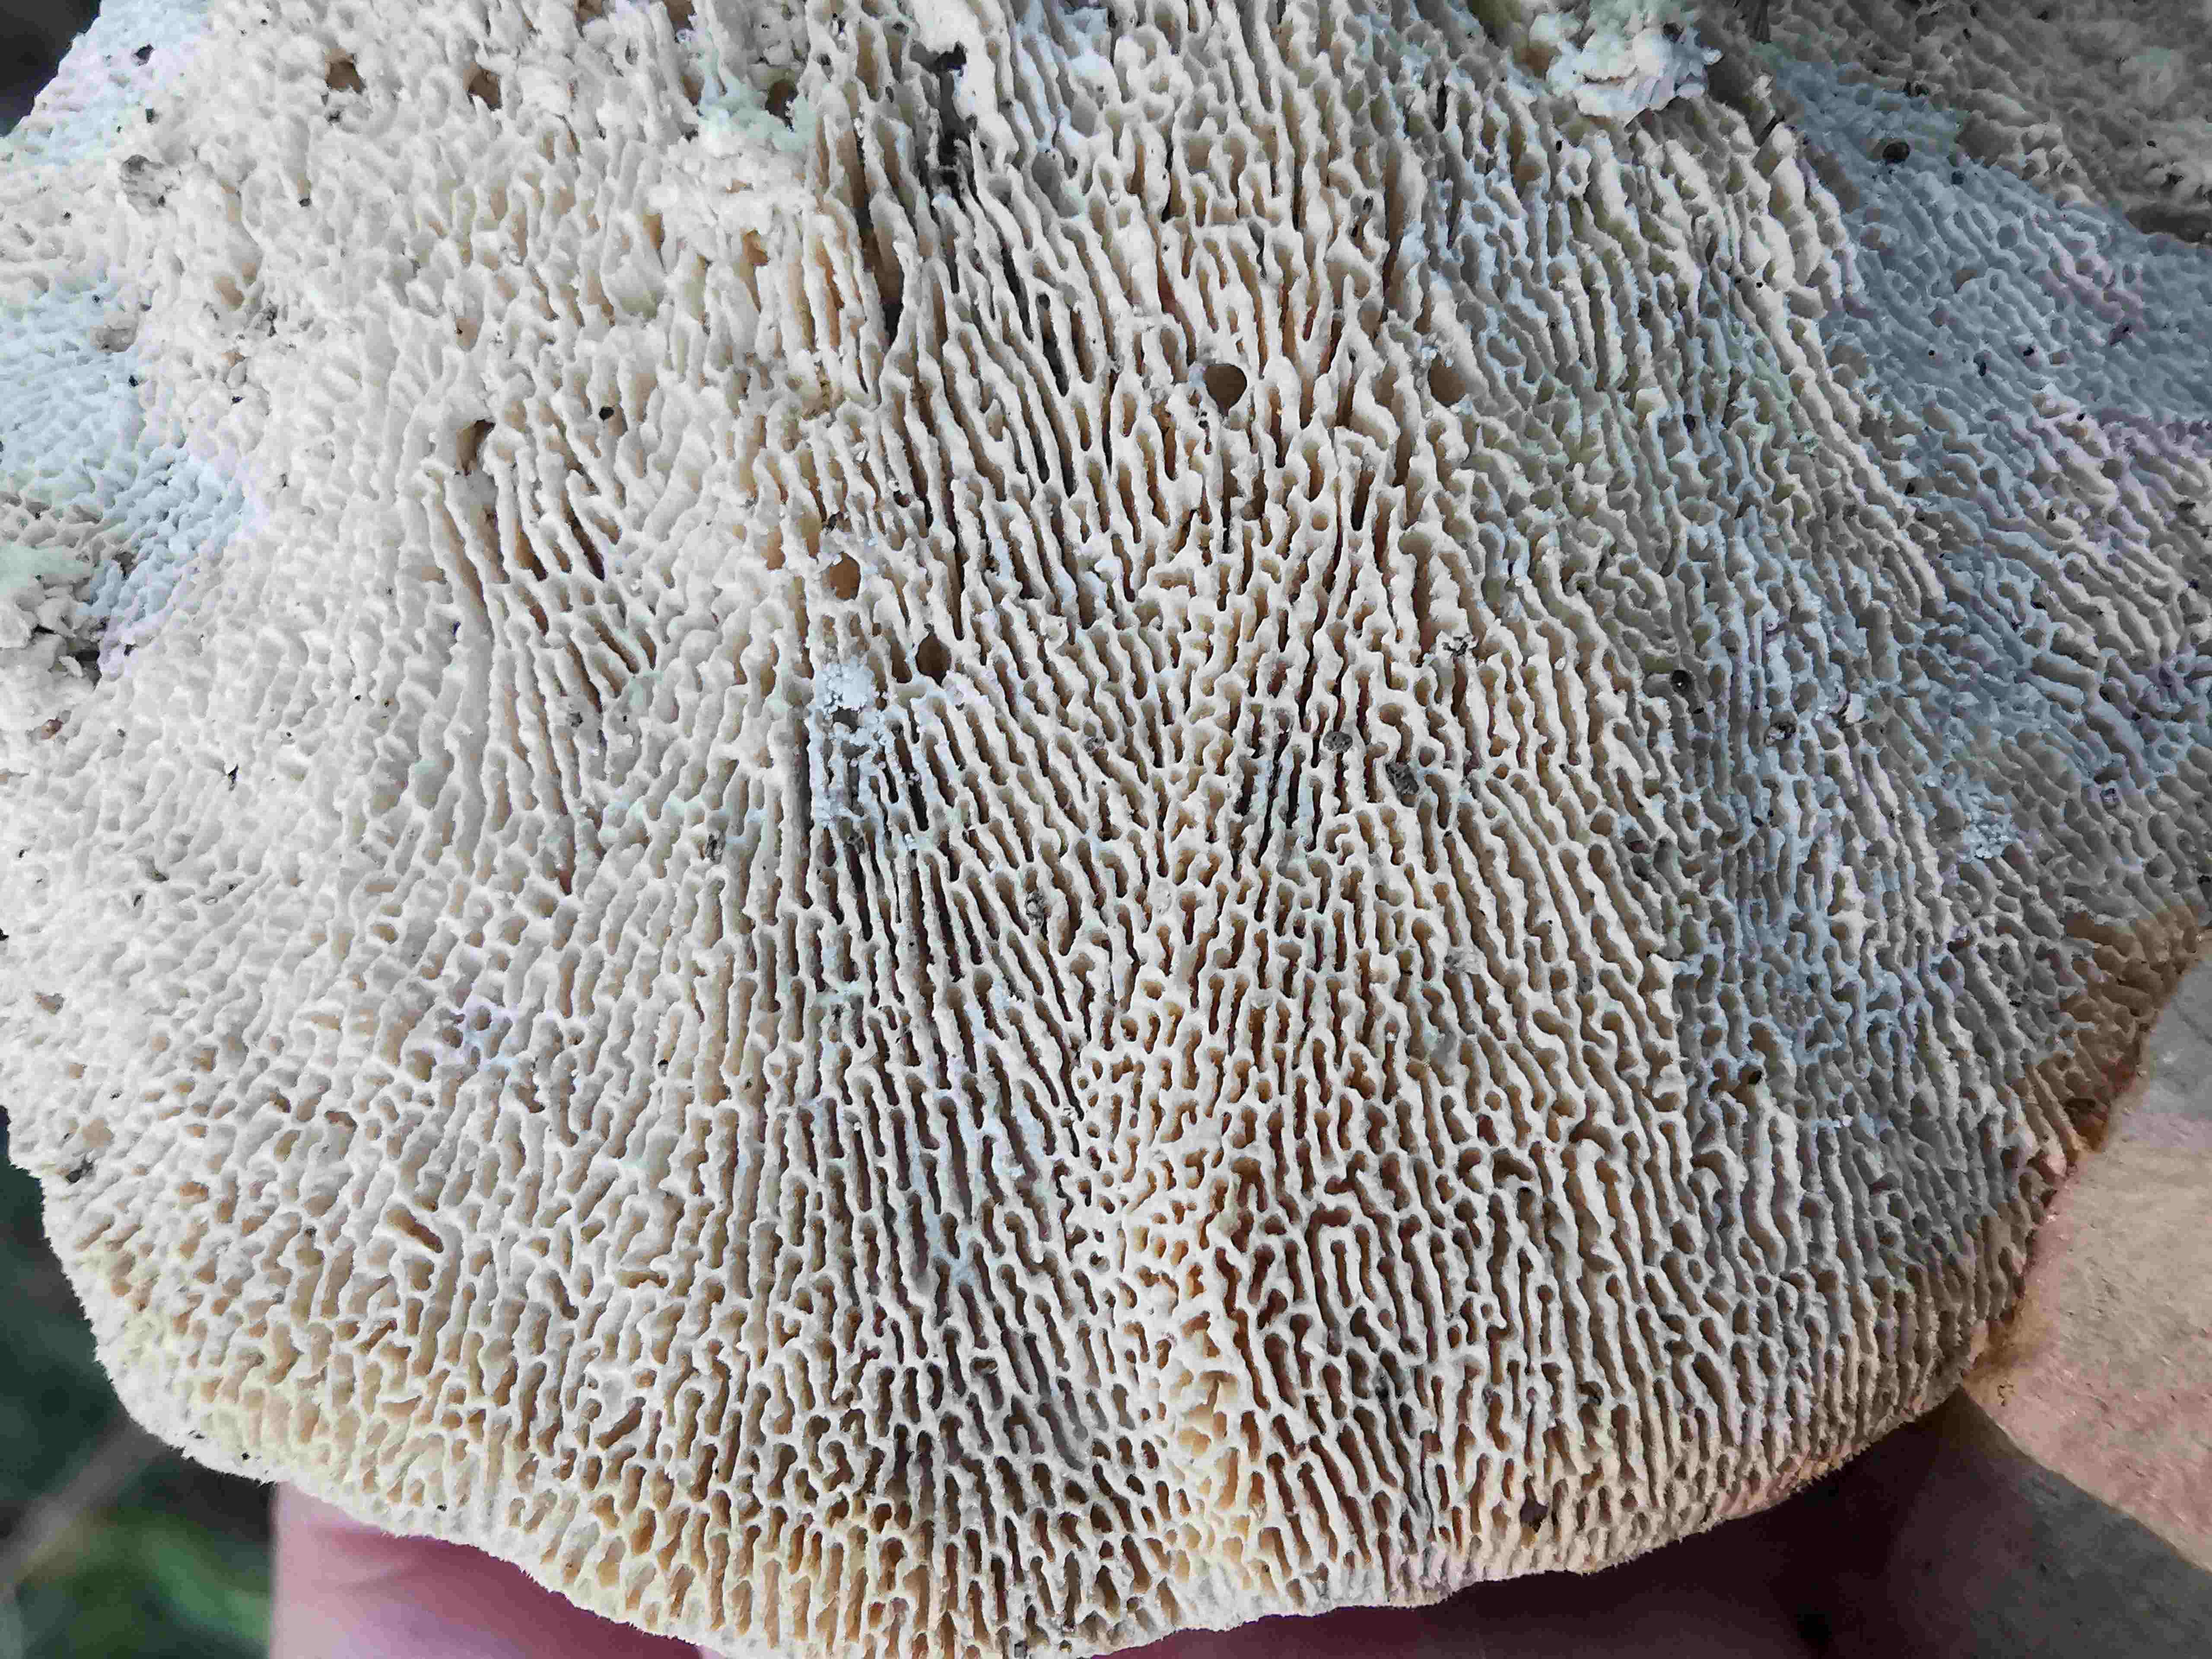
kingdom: Fungi
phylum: Basidiomycota
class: Agaricomycetes
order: Polyporales
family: Polyporaceae
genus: Trametes
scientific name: Trametes gibbosa
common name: puklet læderporesvamp
